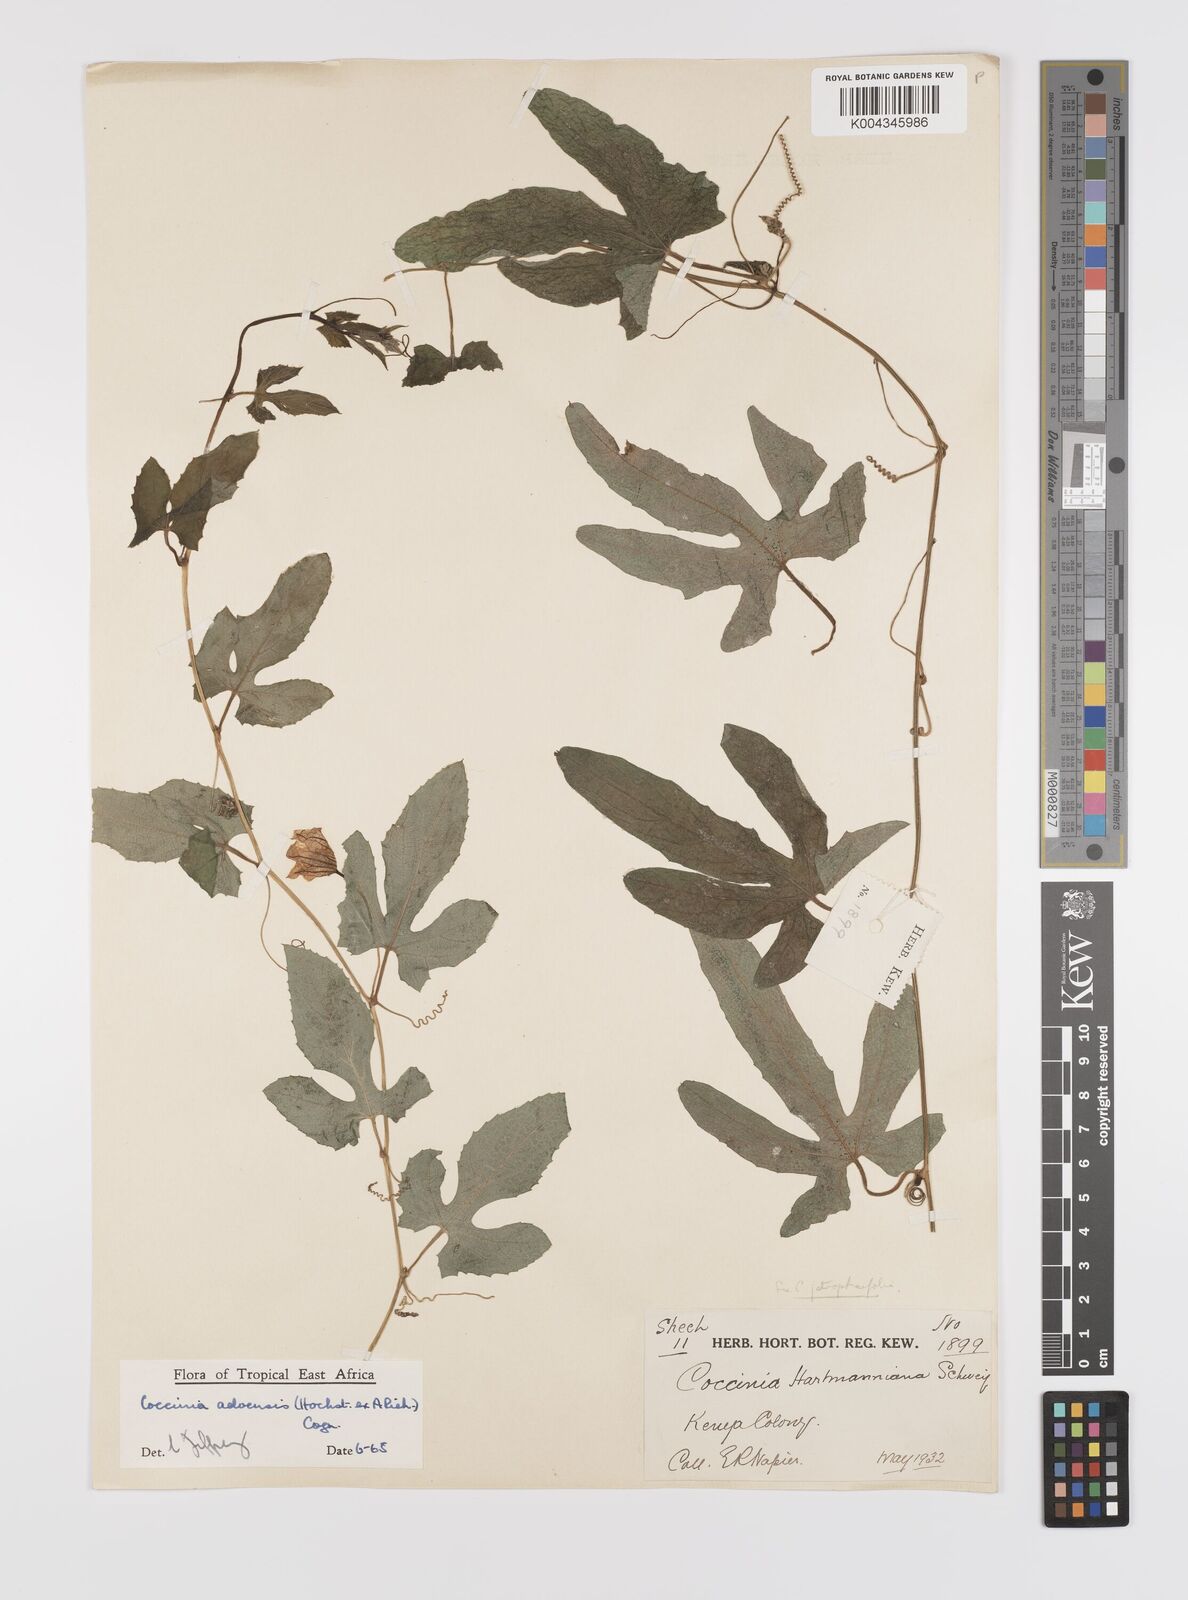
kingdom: Plantae
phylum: Tracheophyta
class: Magnoliopsida
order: Cucurbitales
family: Cucurbitaceae
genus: Coccinia
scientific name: Coccinia adoensis
